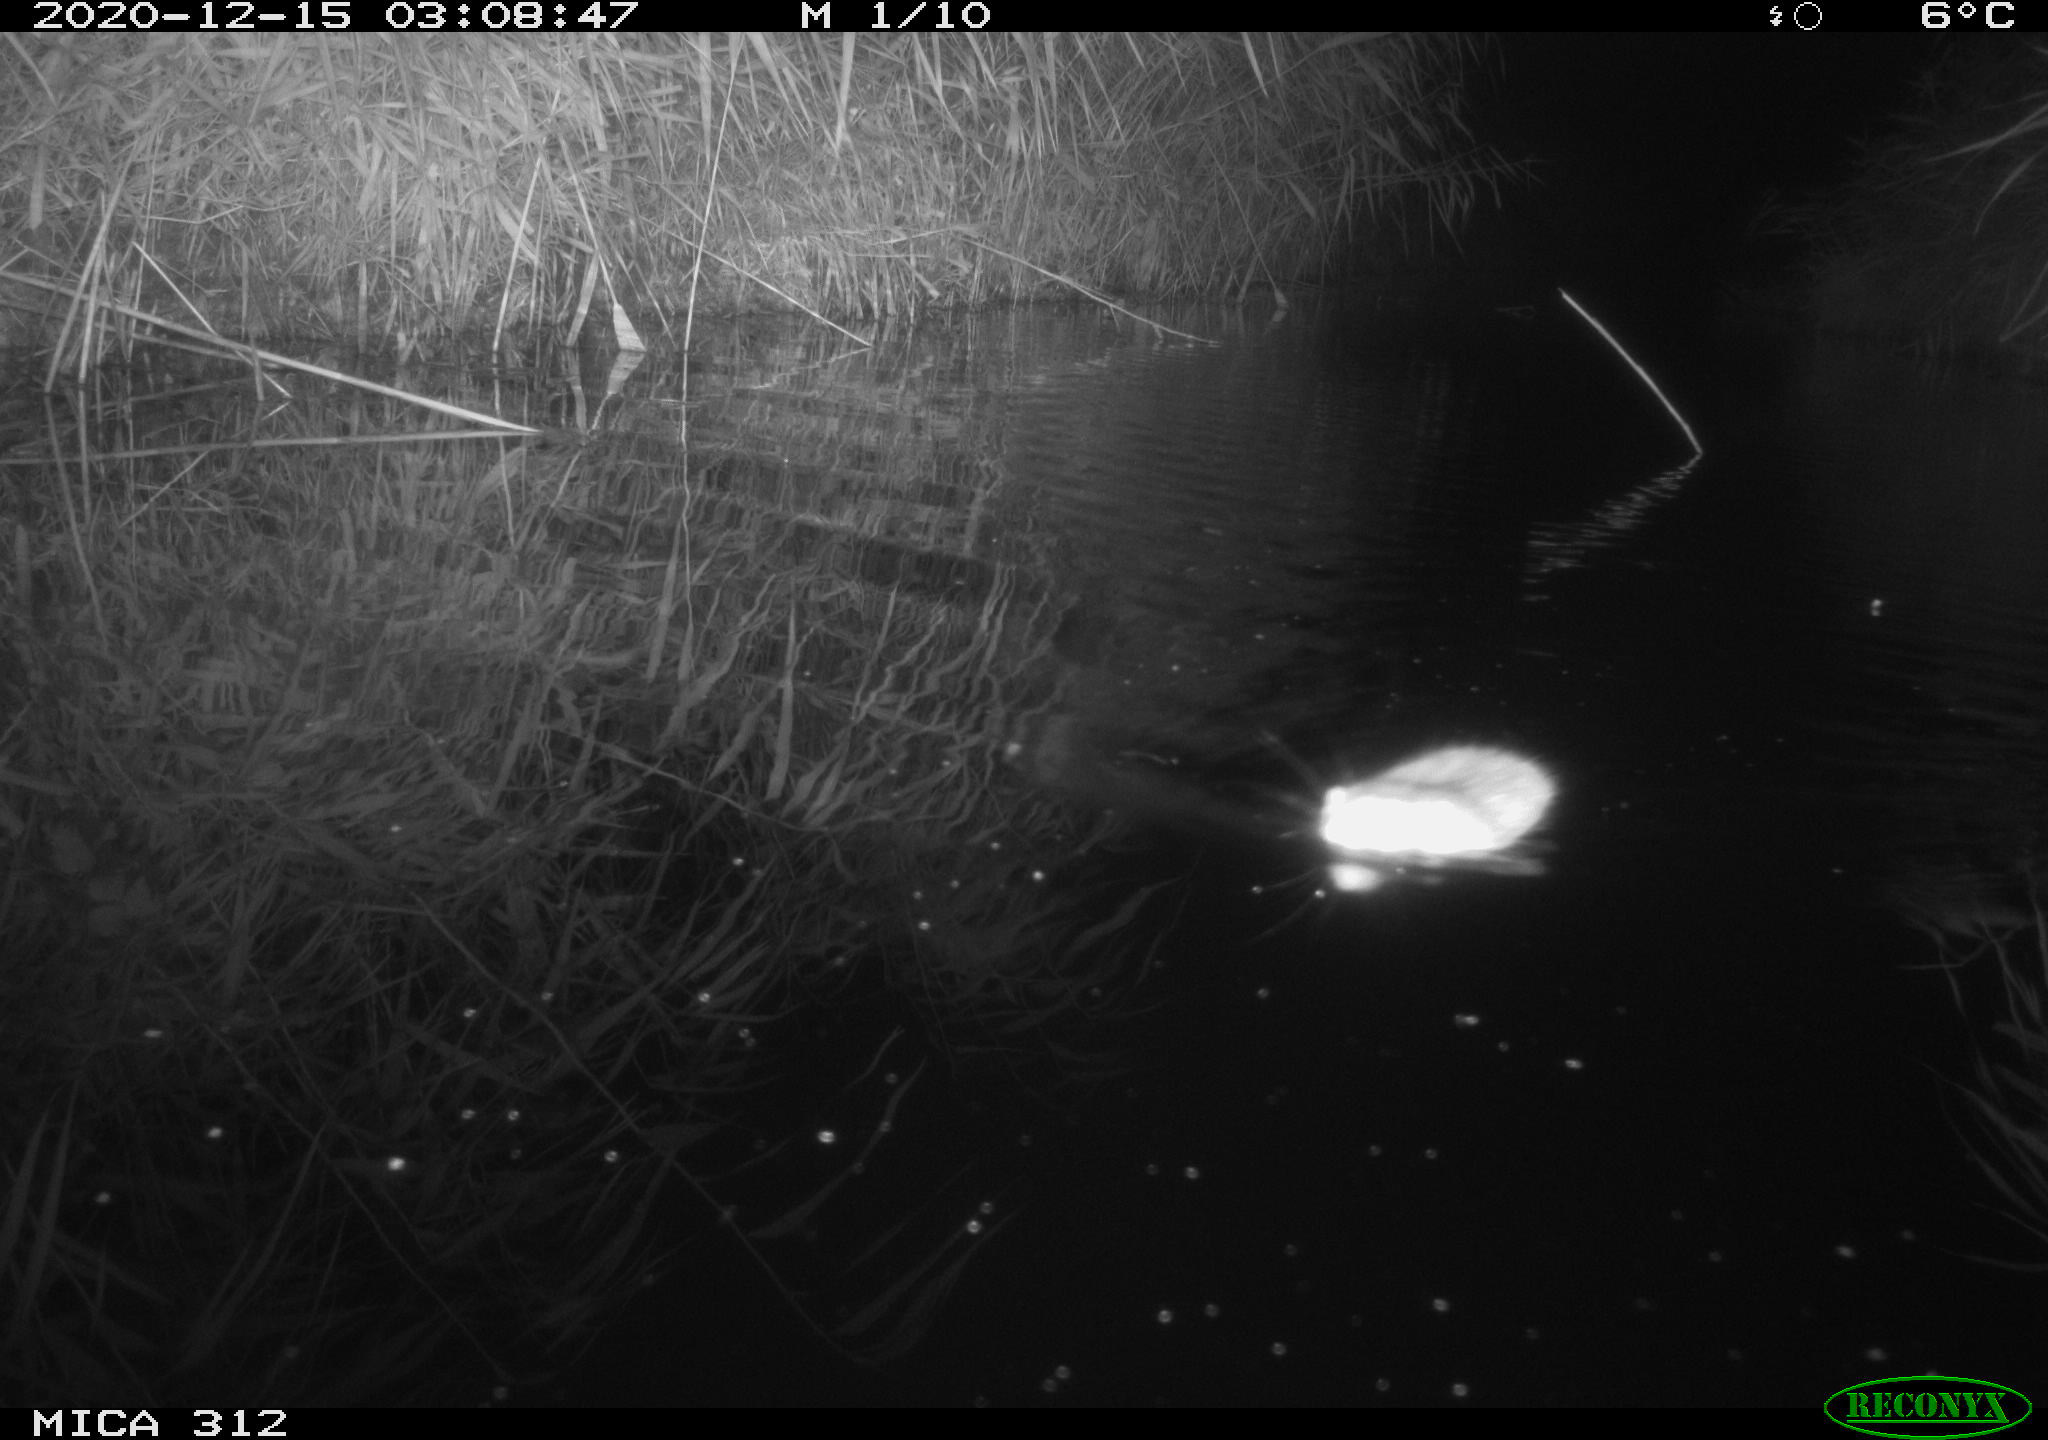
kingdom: Animalia
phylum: Chordata
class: Mammalia
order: Rodentia
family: Muridae
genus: Rattus
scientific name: Rattus norvegicus
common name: Brown rat
